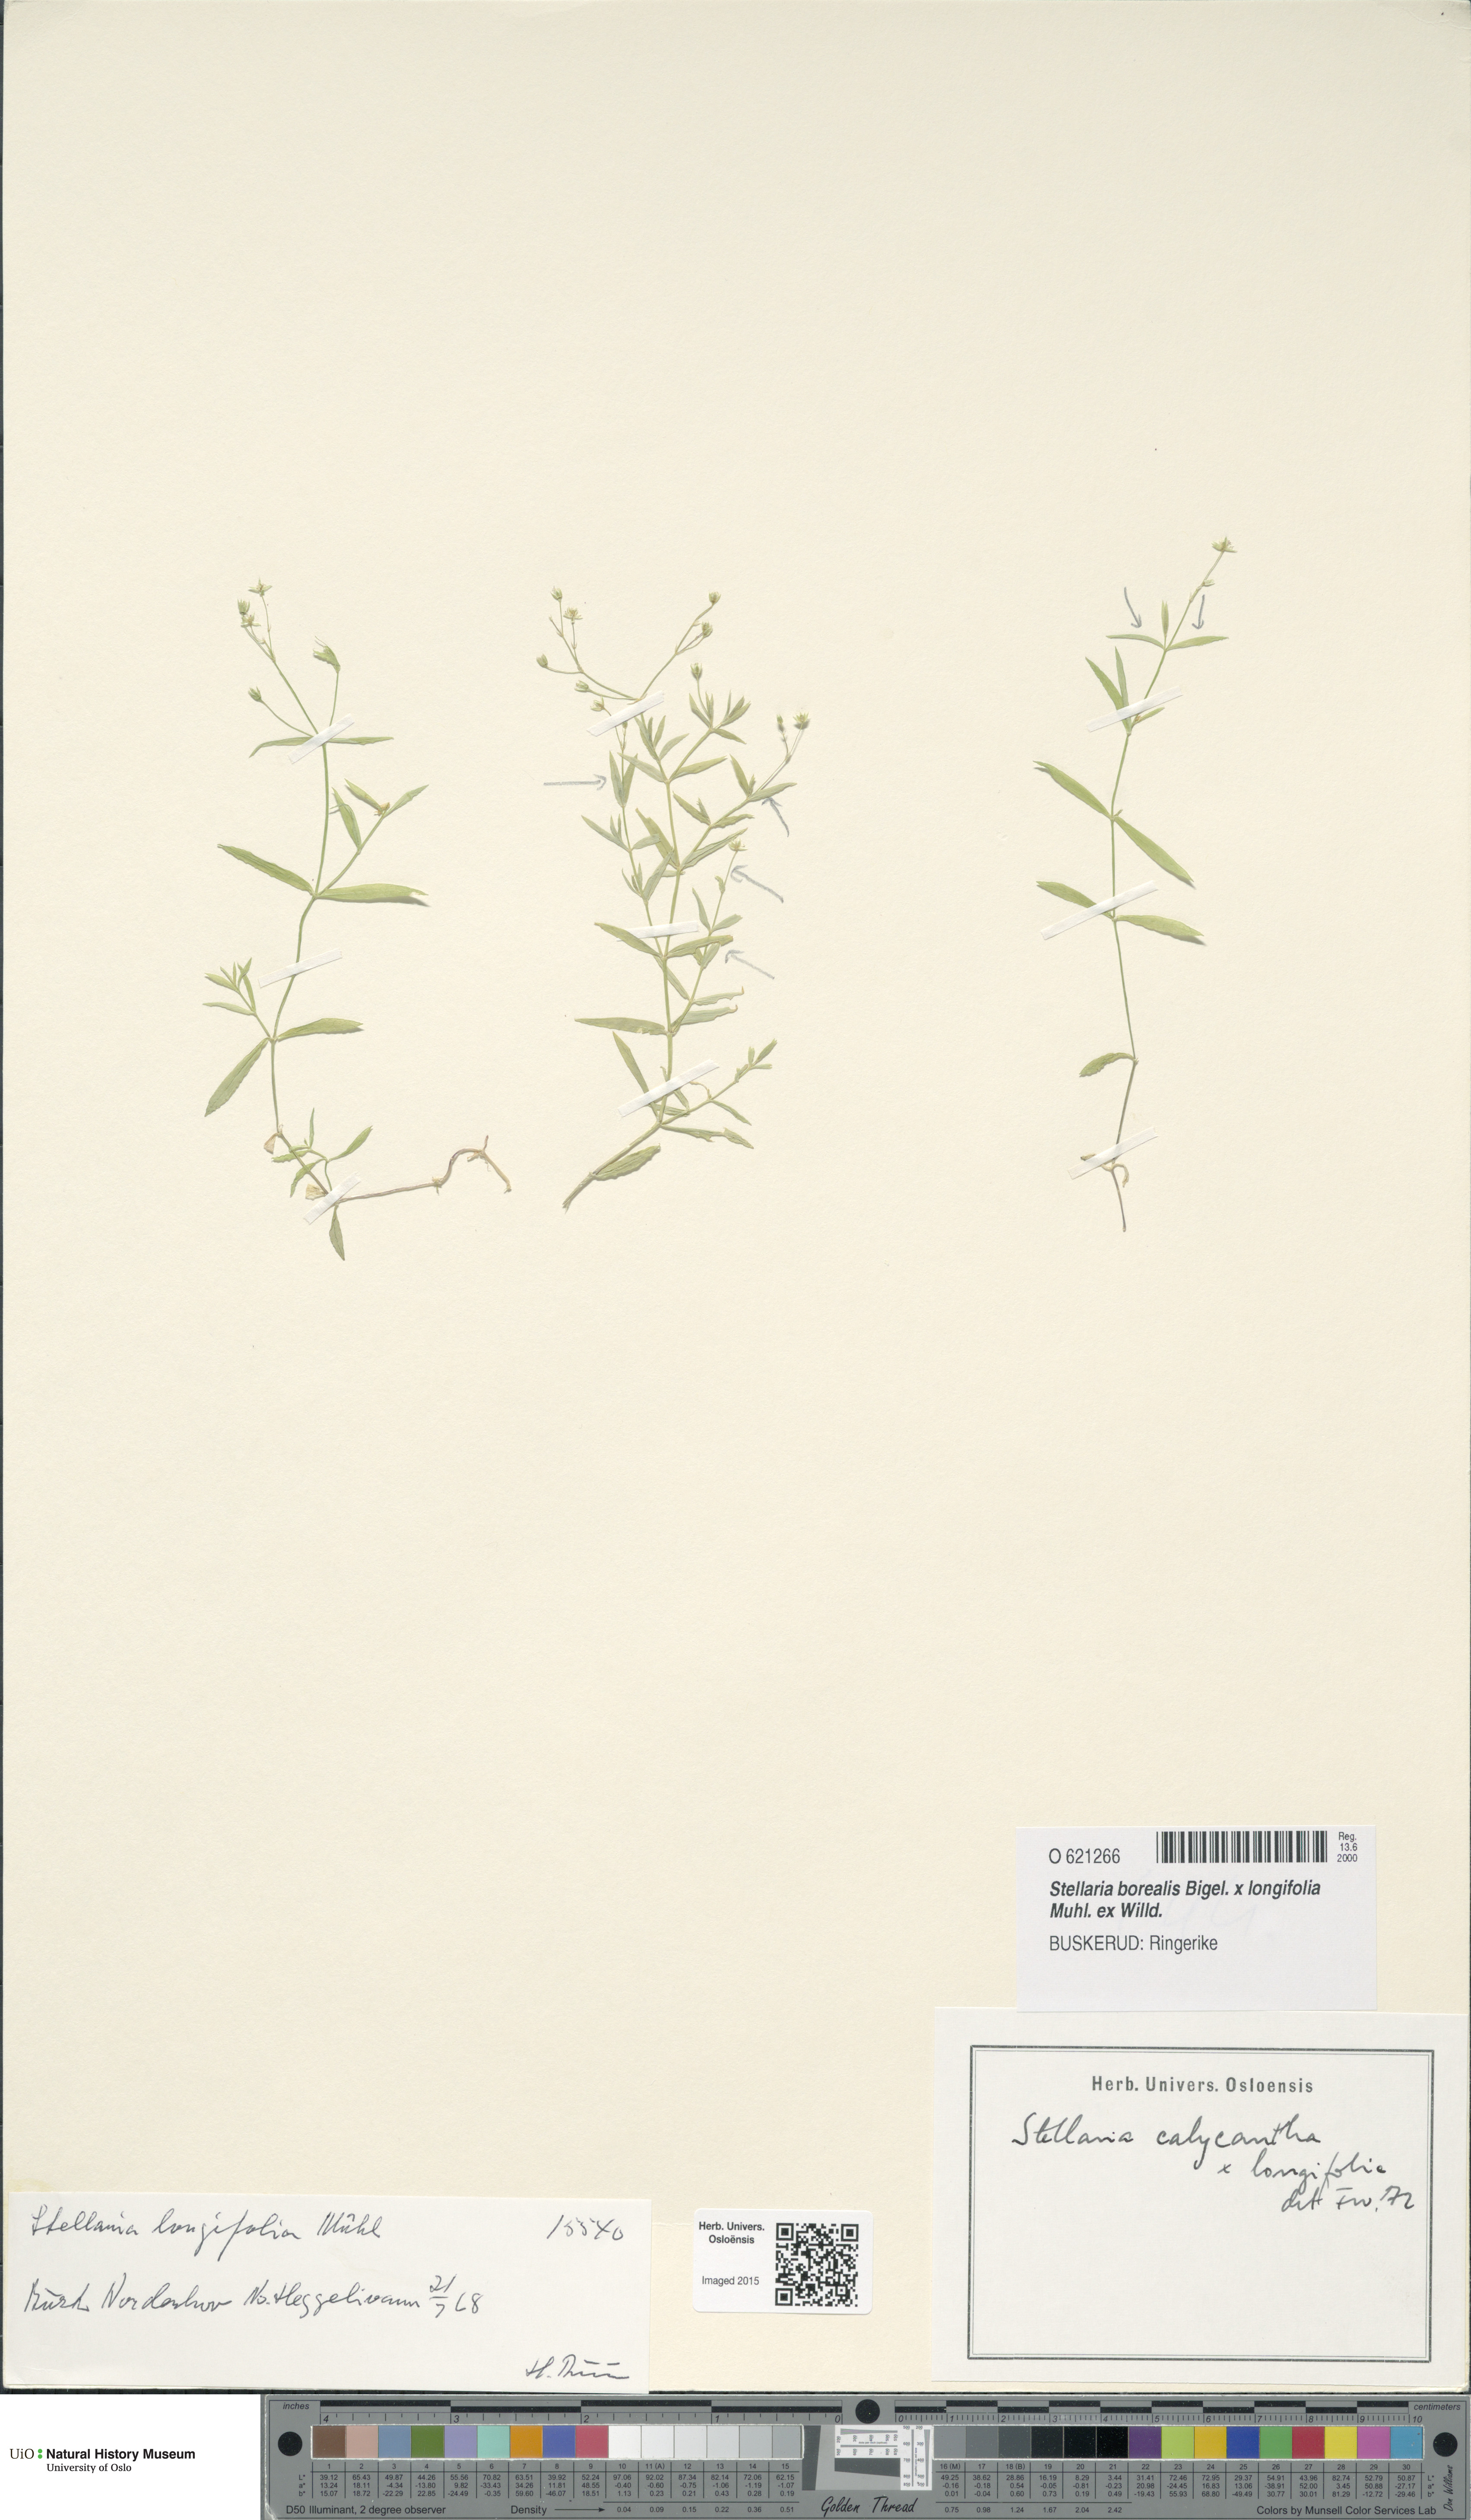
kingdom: Plantae
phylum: Tracheophyta
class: Magnoliopsida
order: Caryophyllales
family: Caryophyllaceae
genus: Stellaria
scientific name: Stellaria
